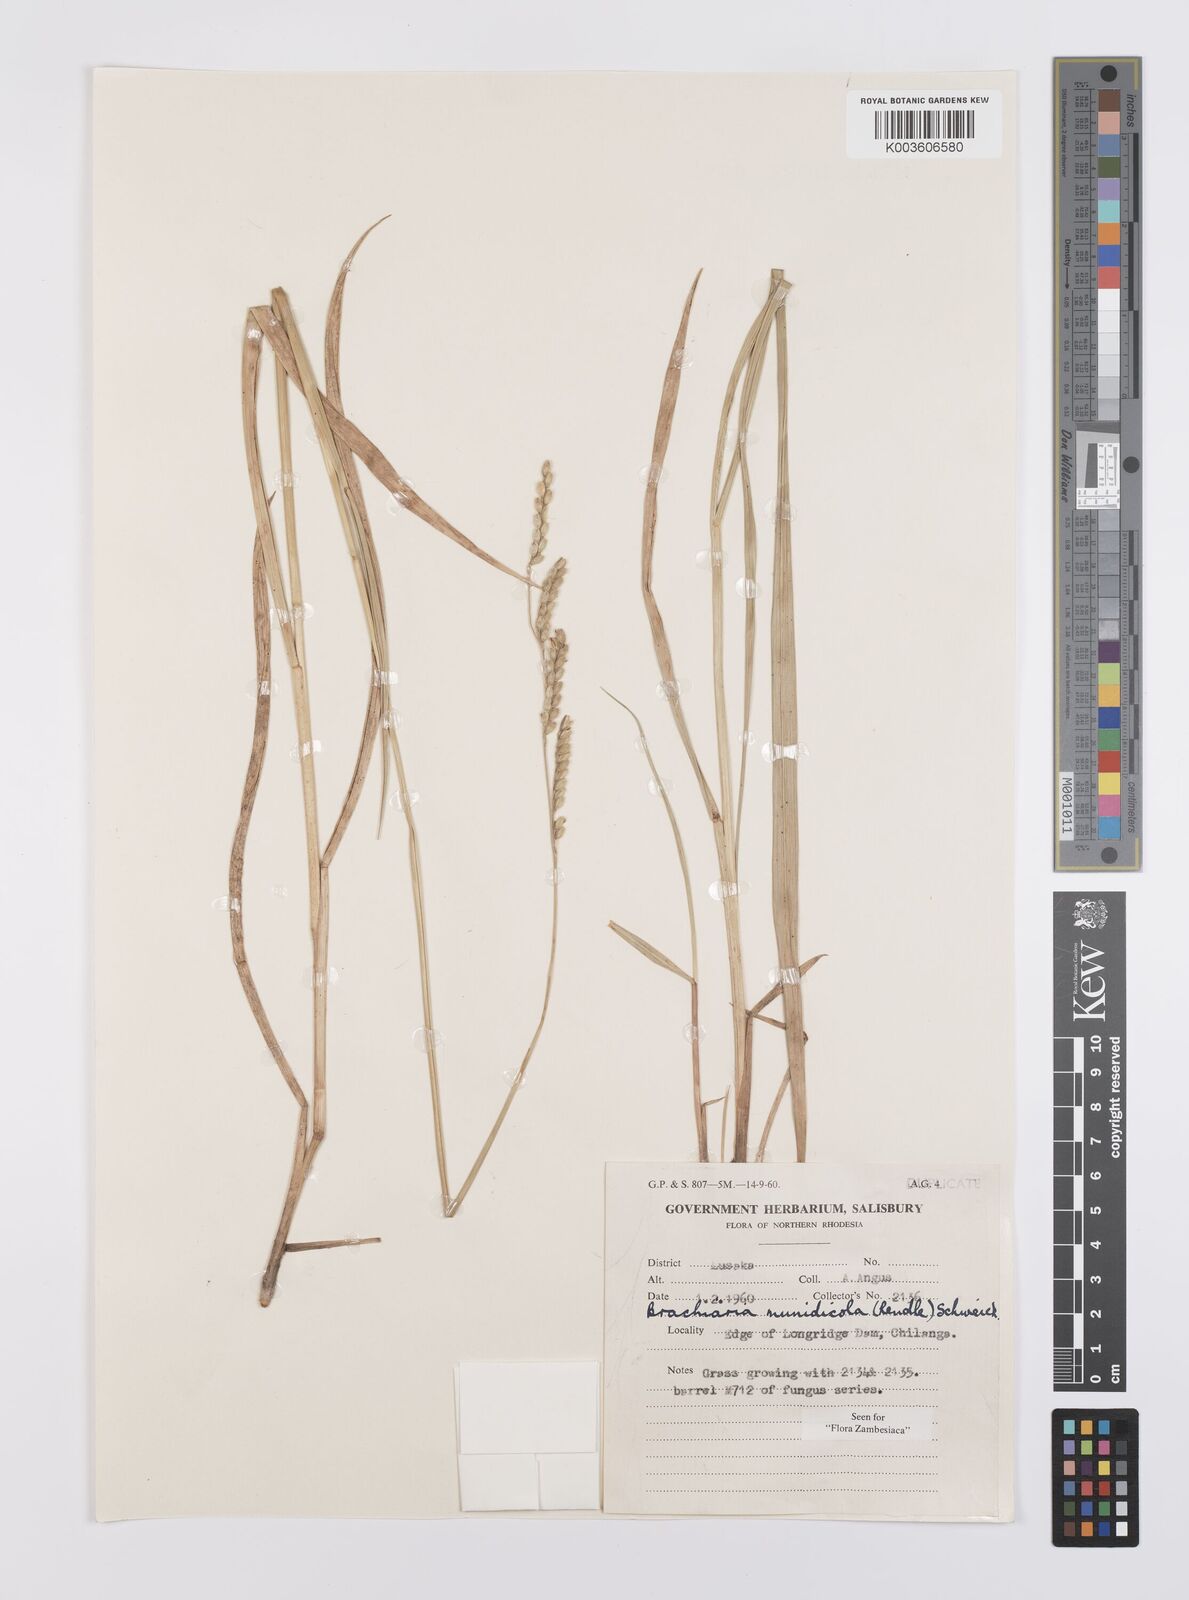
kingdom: Plantae
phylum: Tracheophyta
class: Liliopsida
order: Poales
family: Poaceae
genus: Urochloa
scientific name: Urochloa dictyoneura
